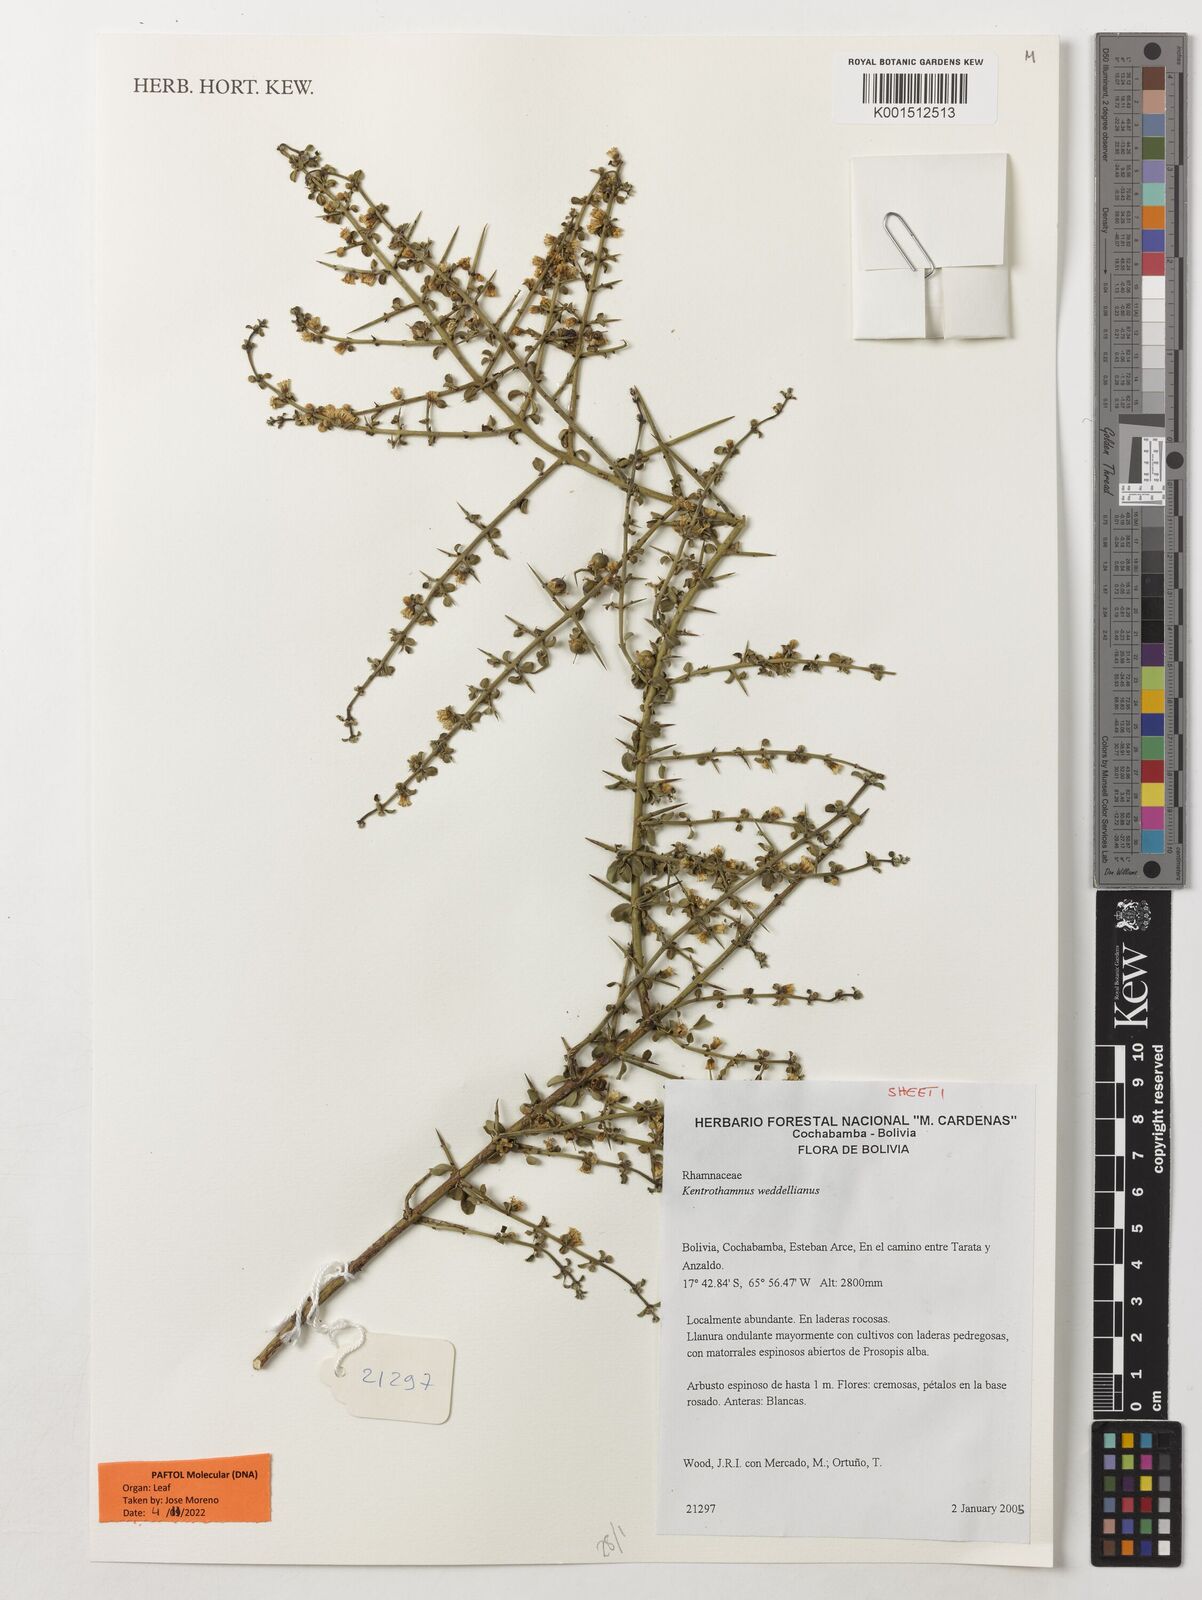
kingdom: Plantae
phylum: Tracheophyta
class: Magnoliopsida
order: Rosales
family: Rhamnaceae
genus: Kentrothamnus
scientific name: Kentrothamnus weddellianus
